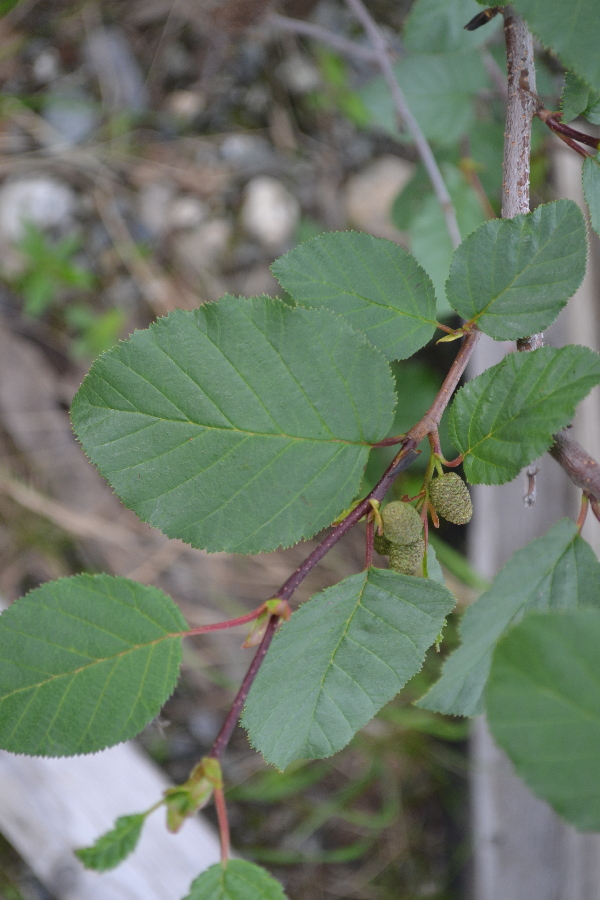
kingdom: Plantae
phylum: Tracheophyta
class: Magnoliopsida
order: Fagales
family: Betulaceae
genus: Alnus
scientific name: Alnus alnobetula
